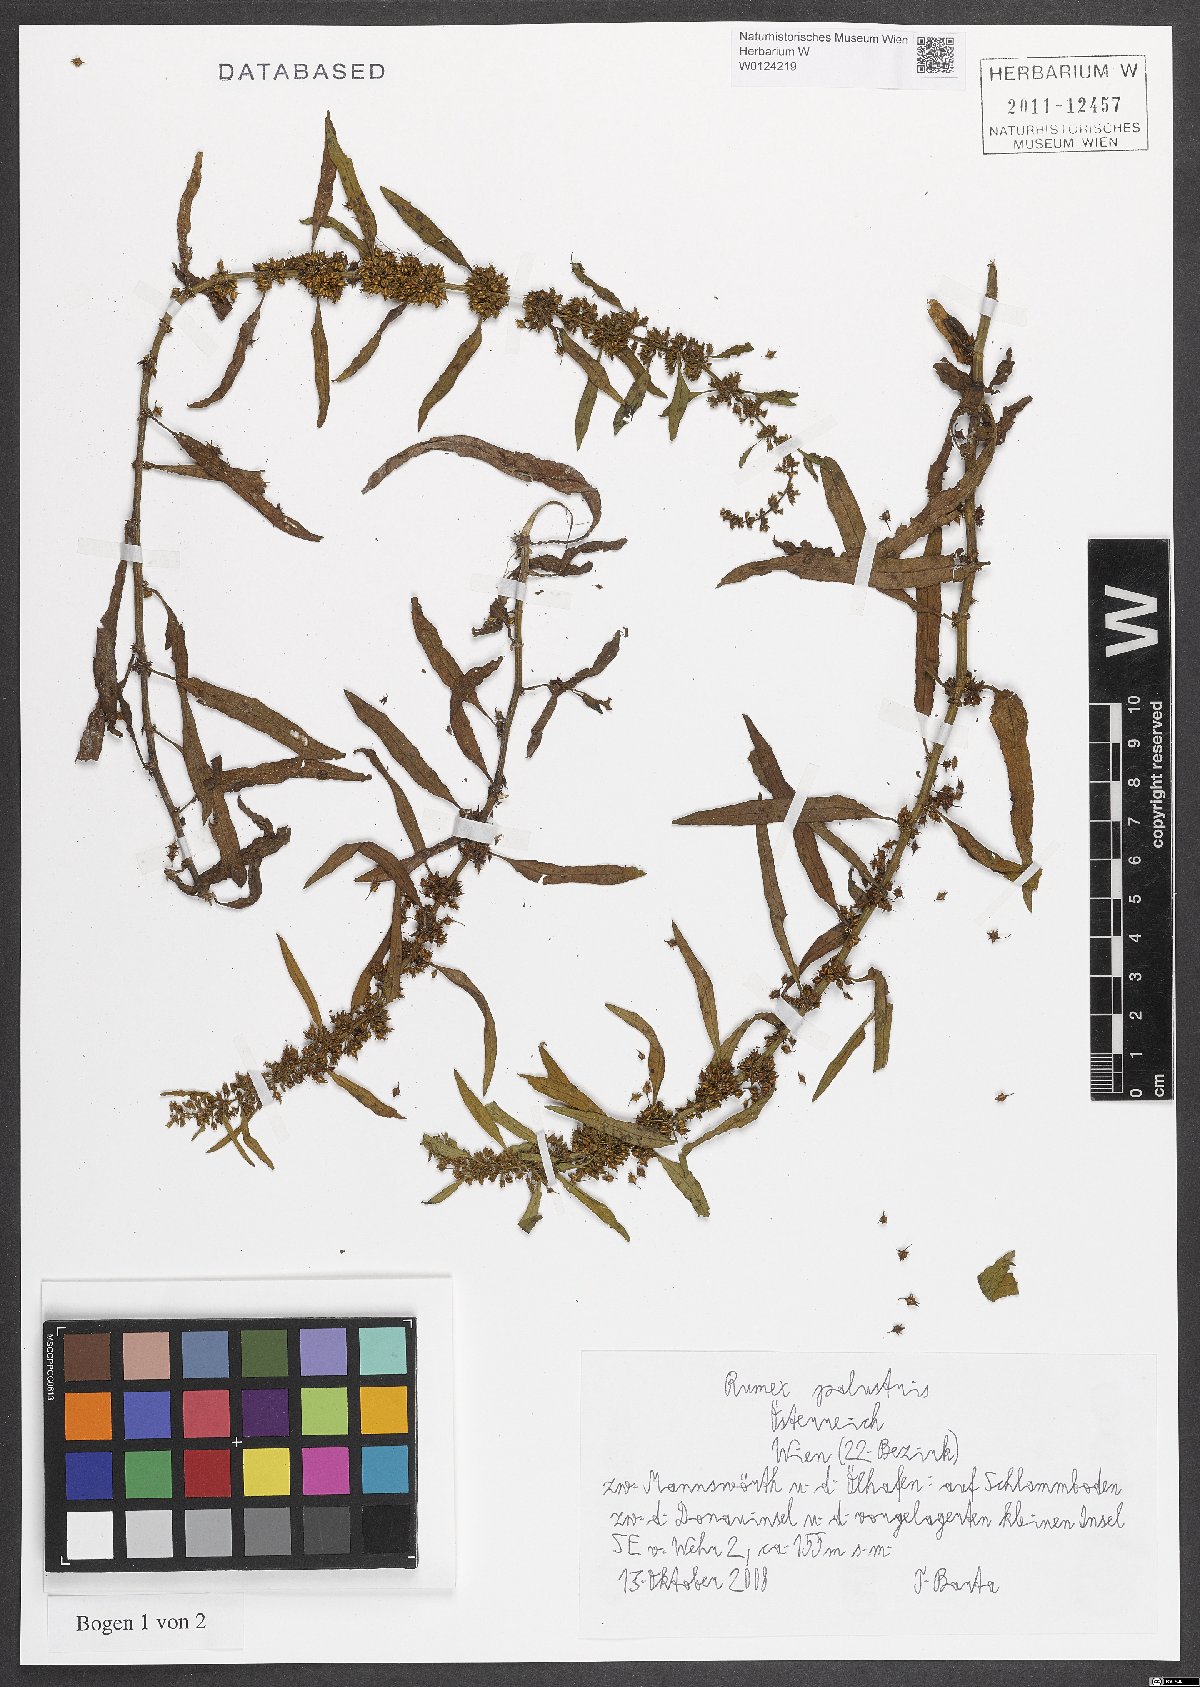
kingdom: Plantae
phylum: Tracheophyta
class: Magnoliopsida
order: Caryophyllales
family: Polygonaceae
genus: Rumex
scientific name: Rumex palustris
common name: Marsh dock
